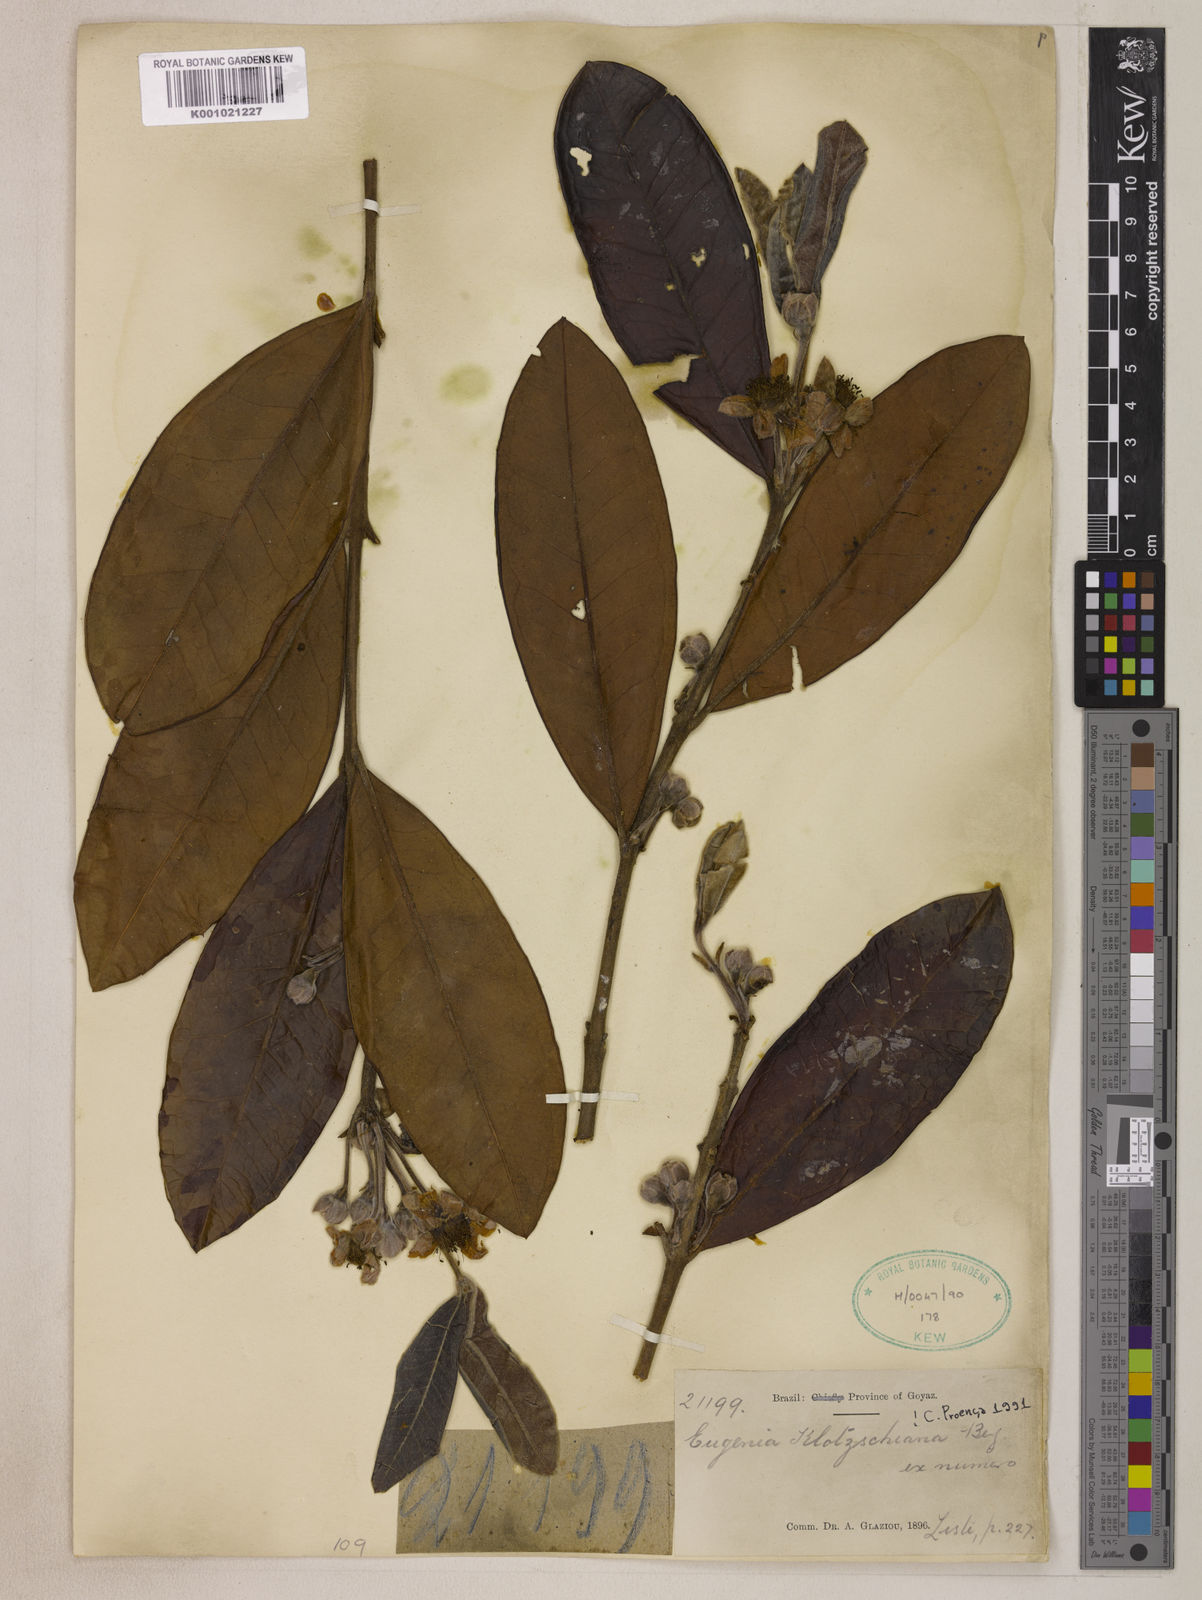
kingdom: Plantae
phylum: Tracheophyta
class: Magnoliopsida
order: Myrtales
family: Myrtaceae
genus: Eugenia
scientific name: Eugenia klotzschiana
